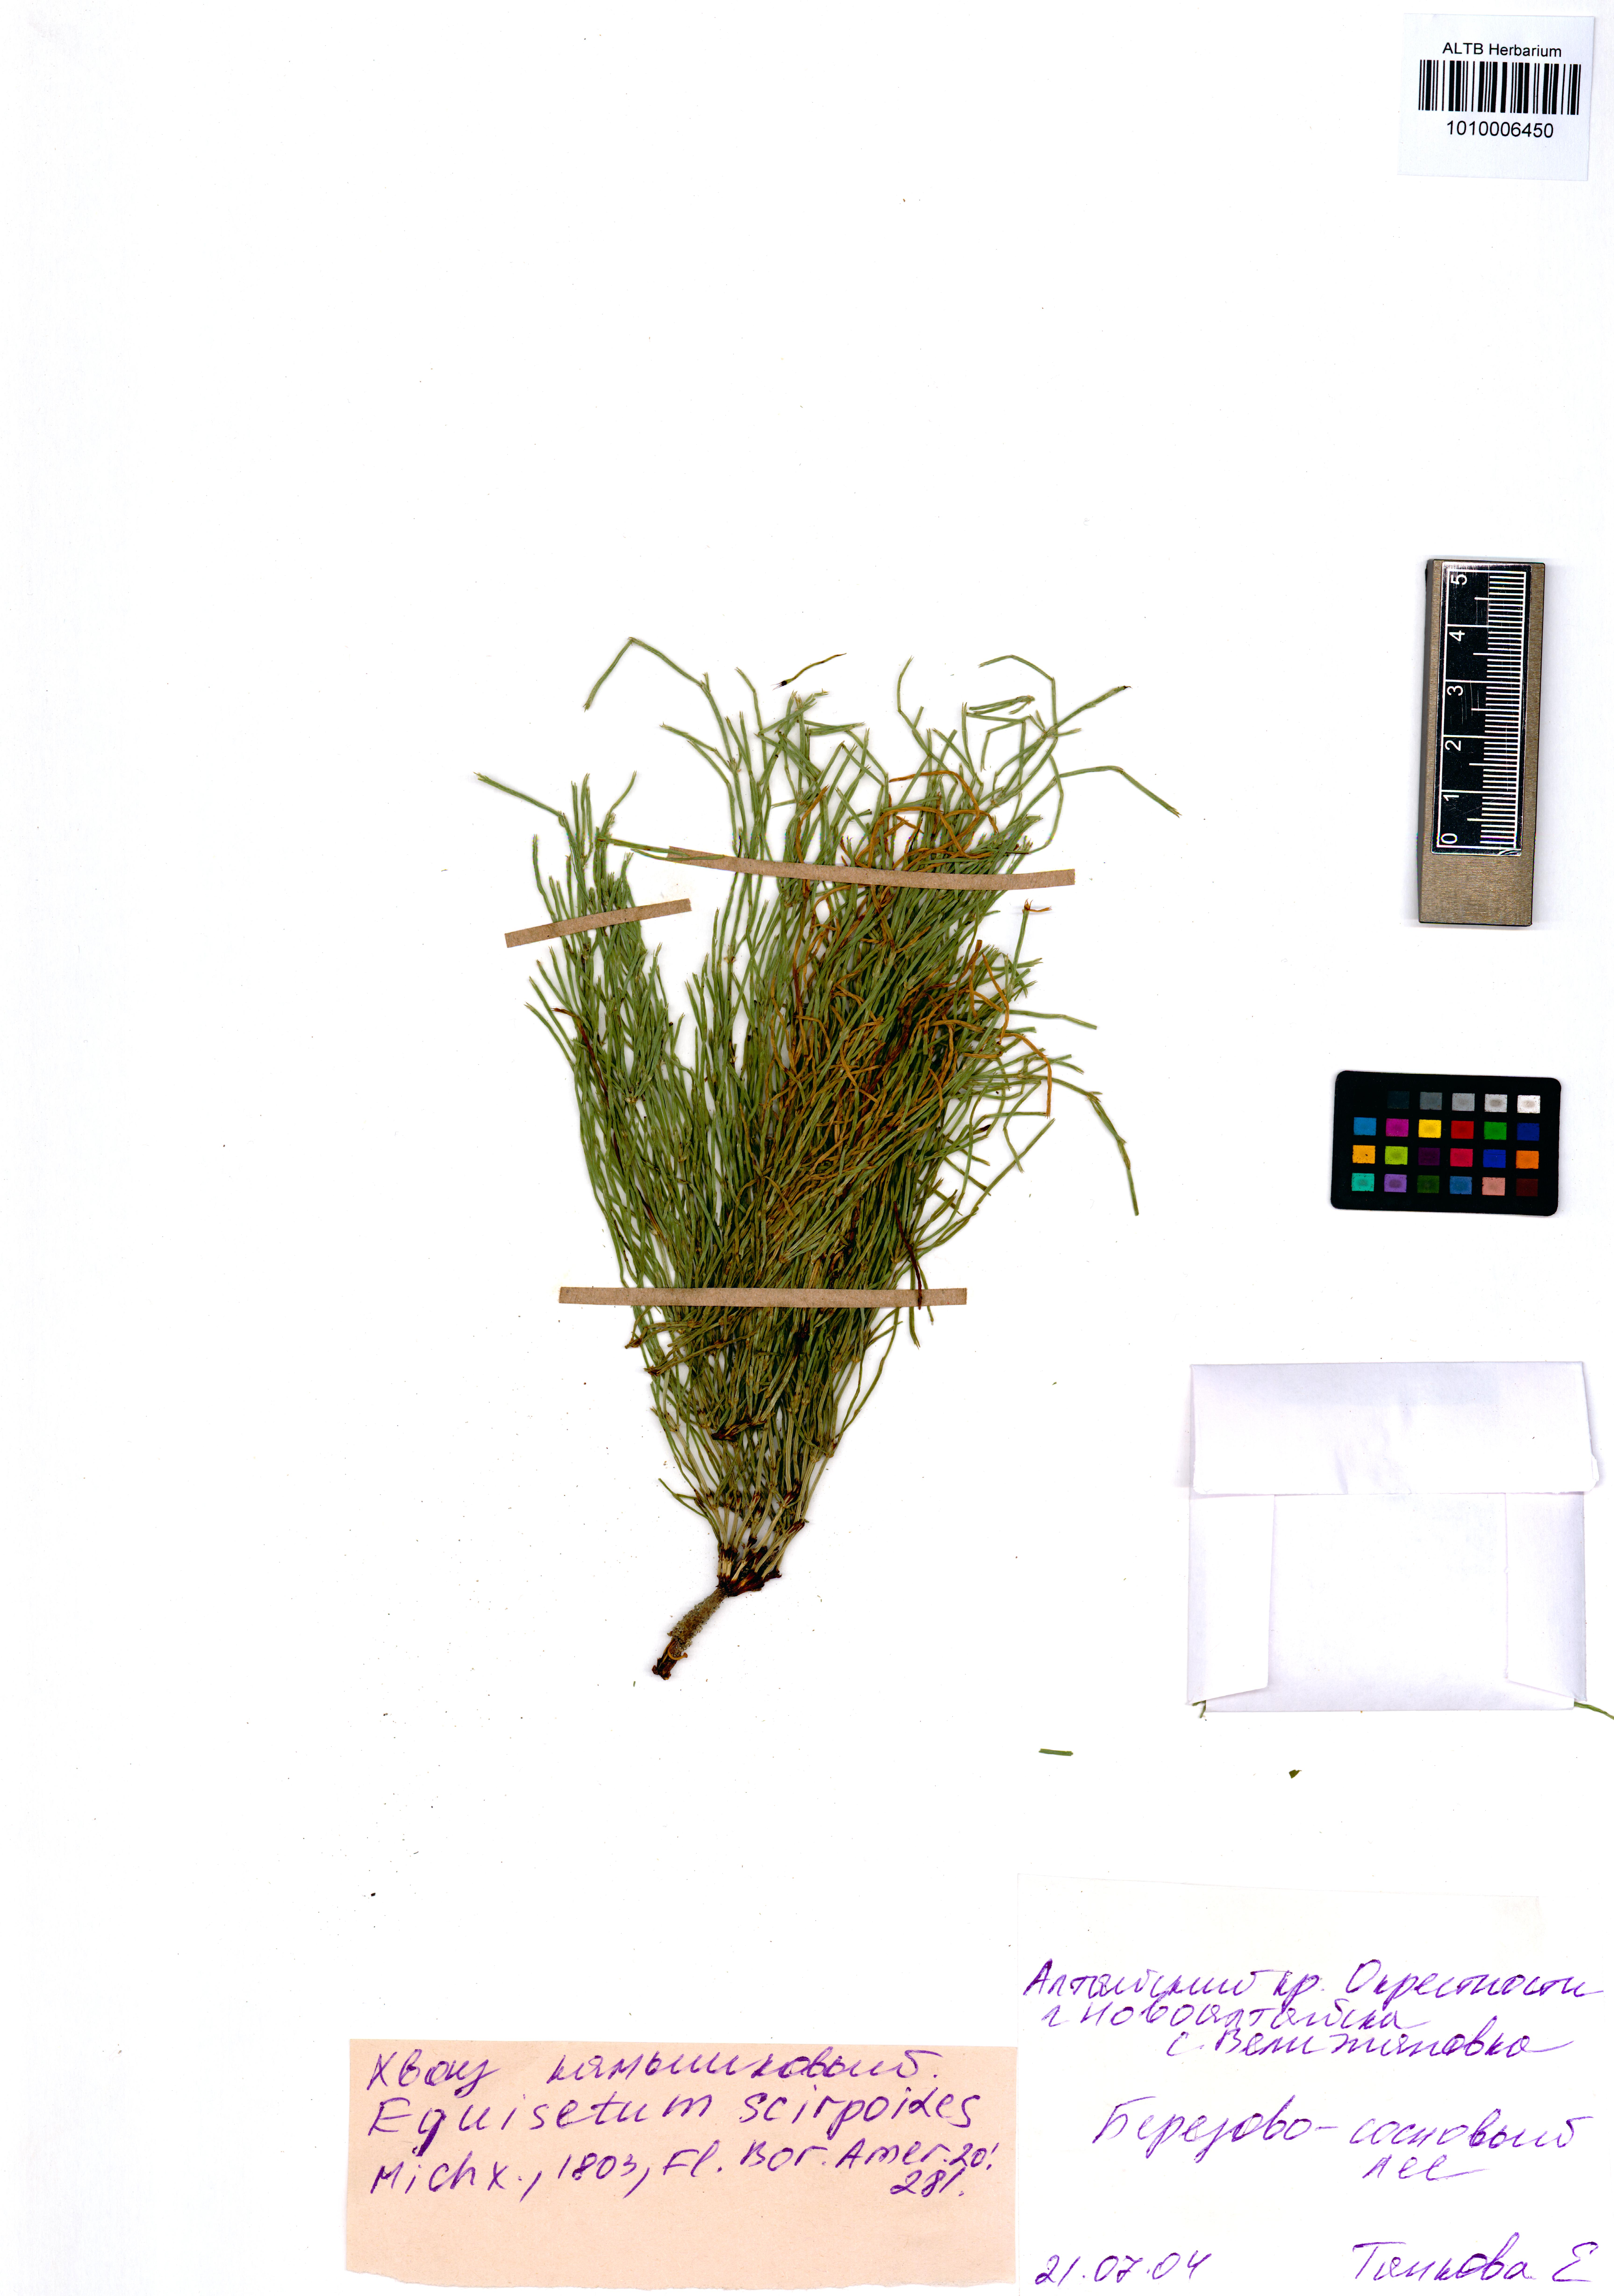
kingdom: Plantae
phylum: Tracheophyta
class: Polypodiopsida
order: Equisetales
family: Equisetaceae
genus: Equisetum
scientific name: Equisetum scirpoides
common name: Delicate horsetail
